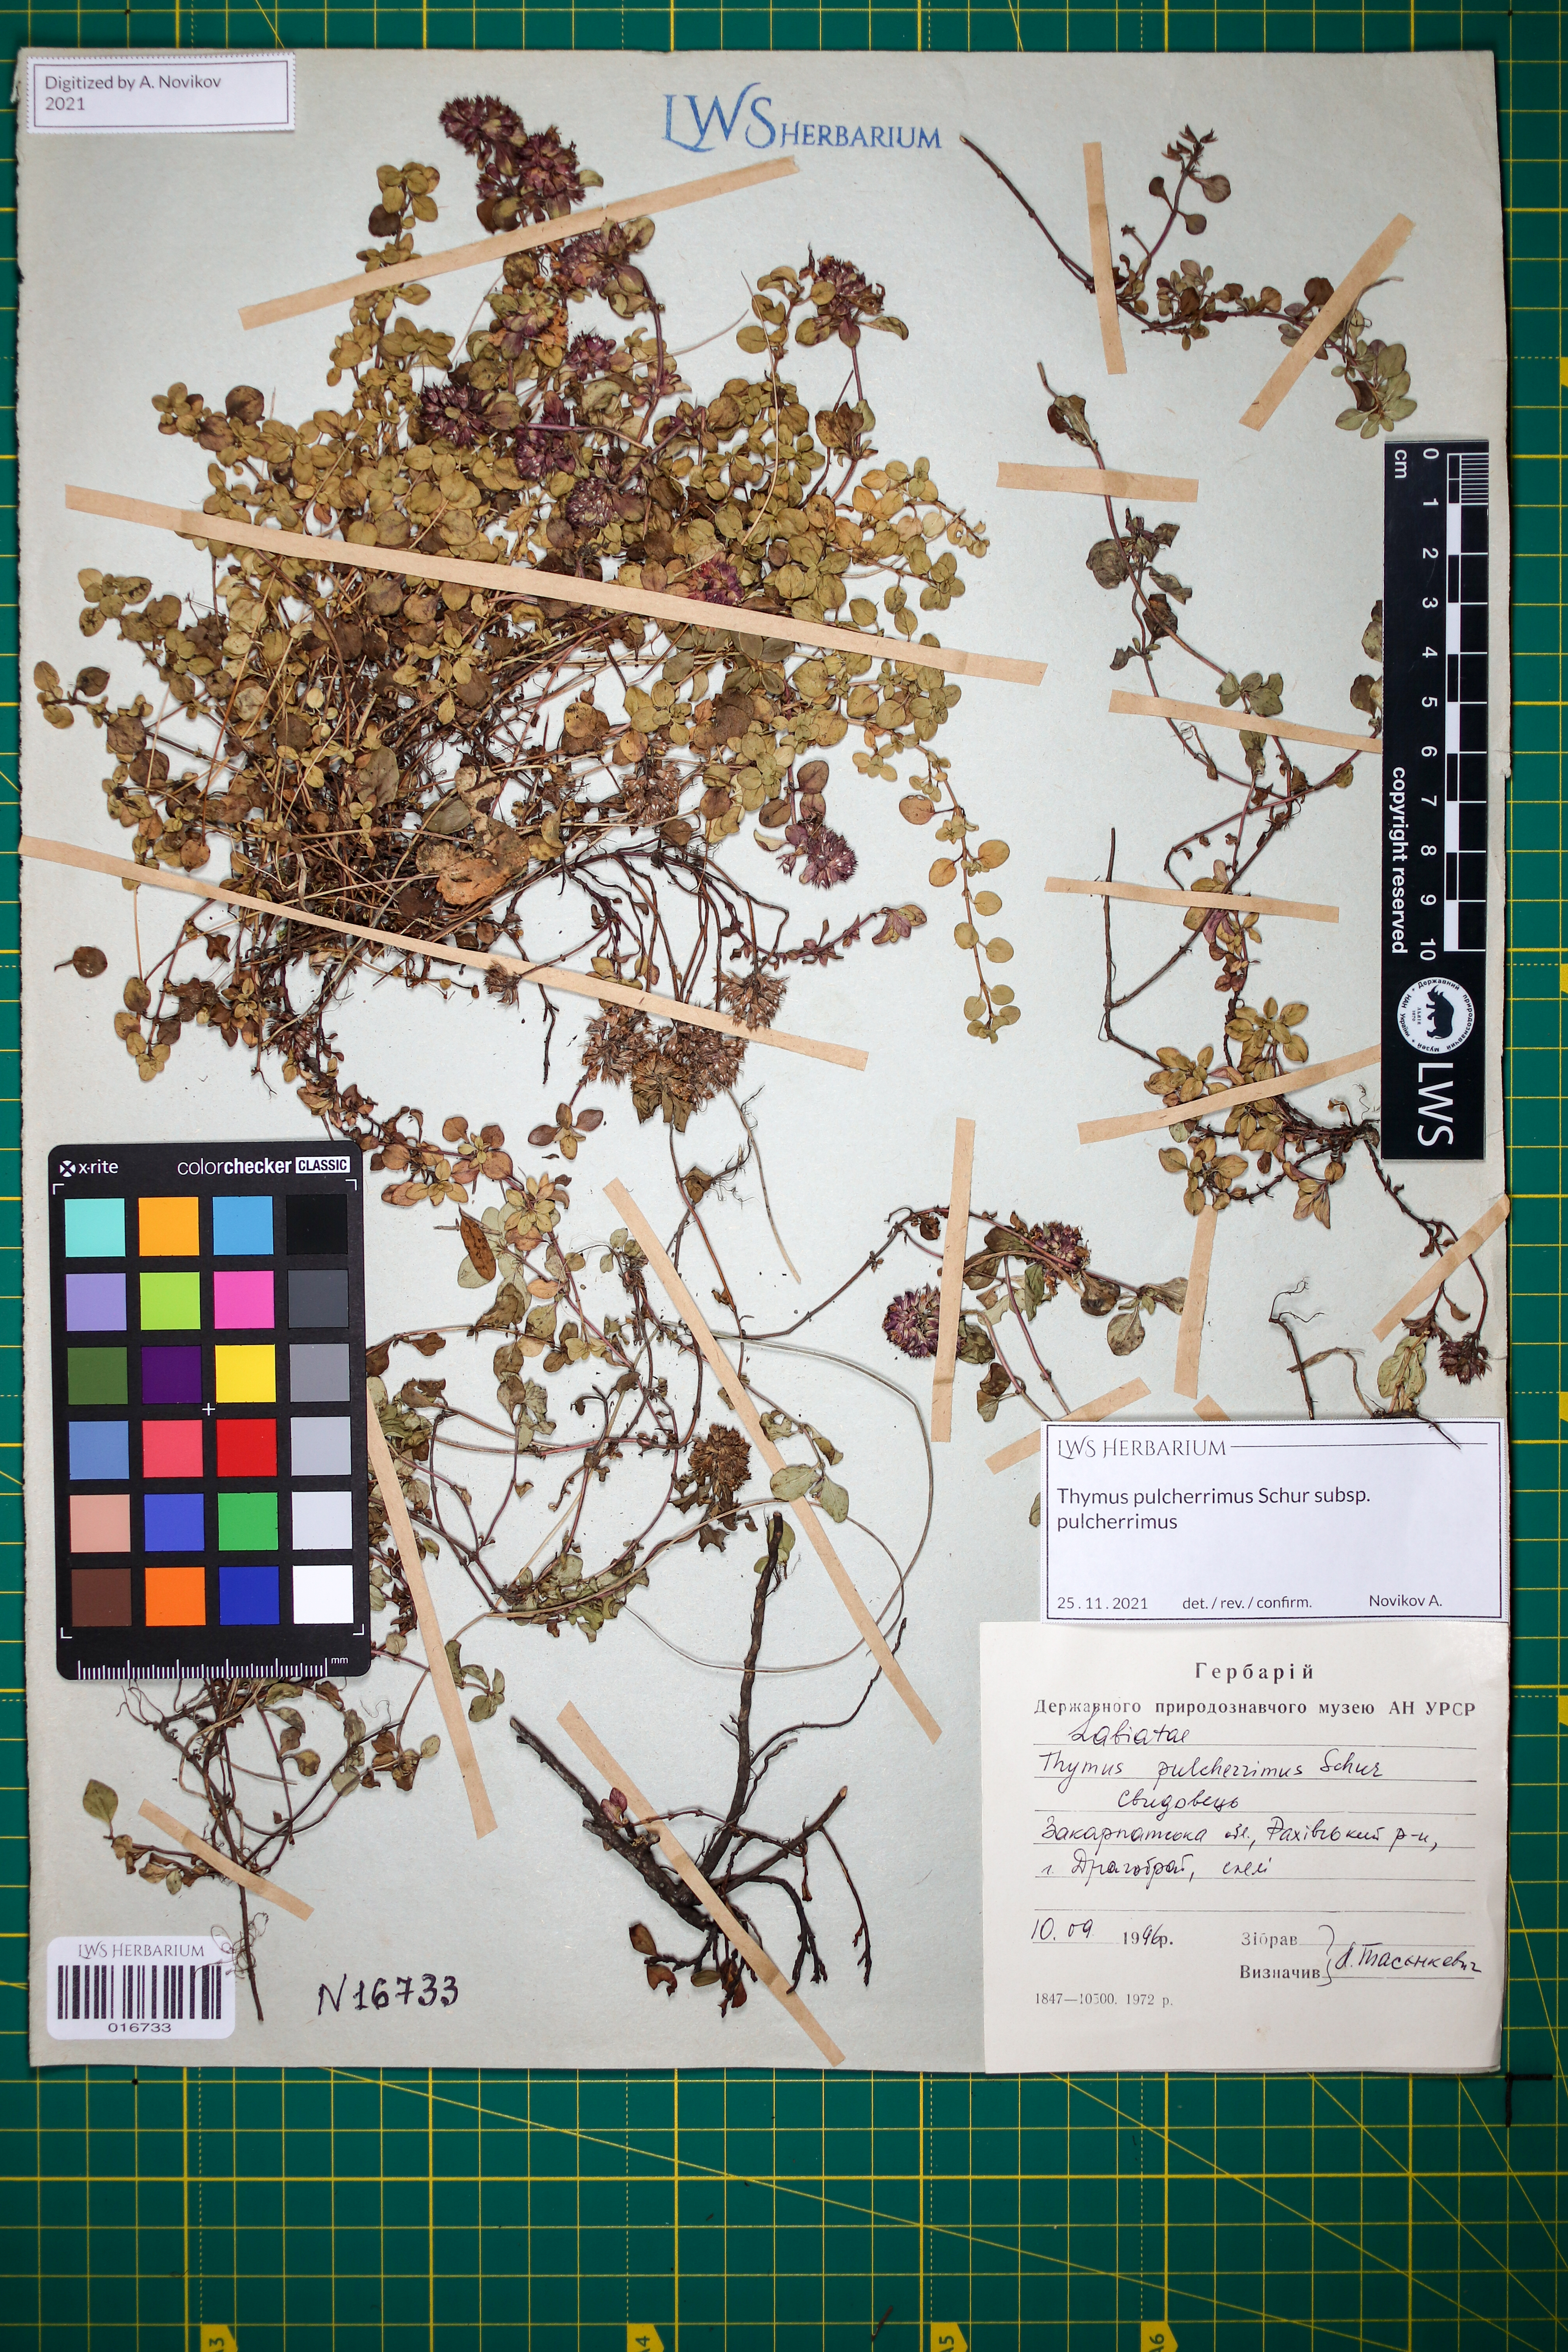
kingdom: Plantae
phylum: Tracheophyta
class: Magnoliopsida
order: Lamiales
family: Lamiaceae
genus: Thymus
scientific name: Thymus pulcherrimus
